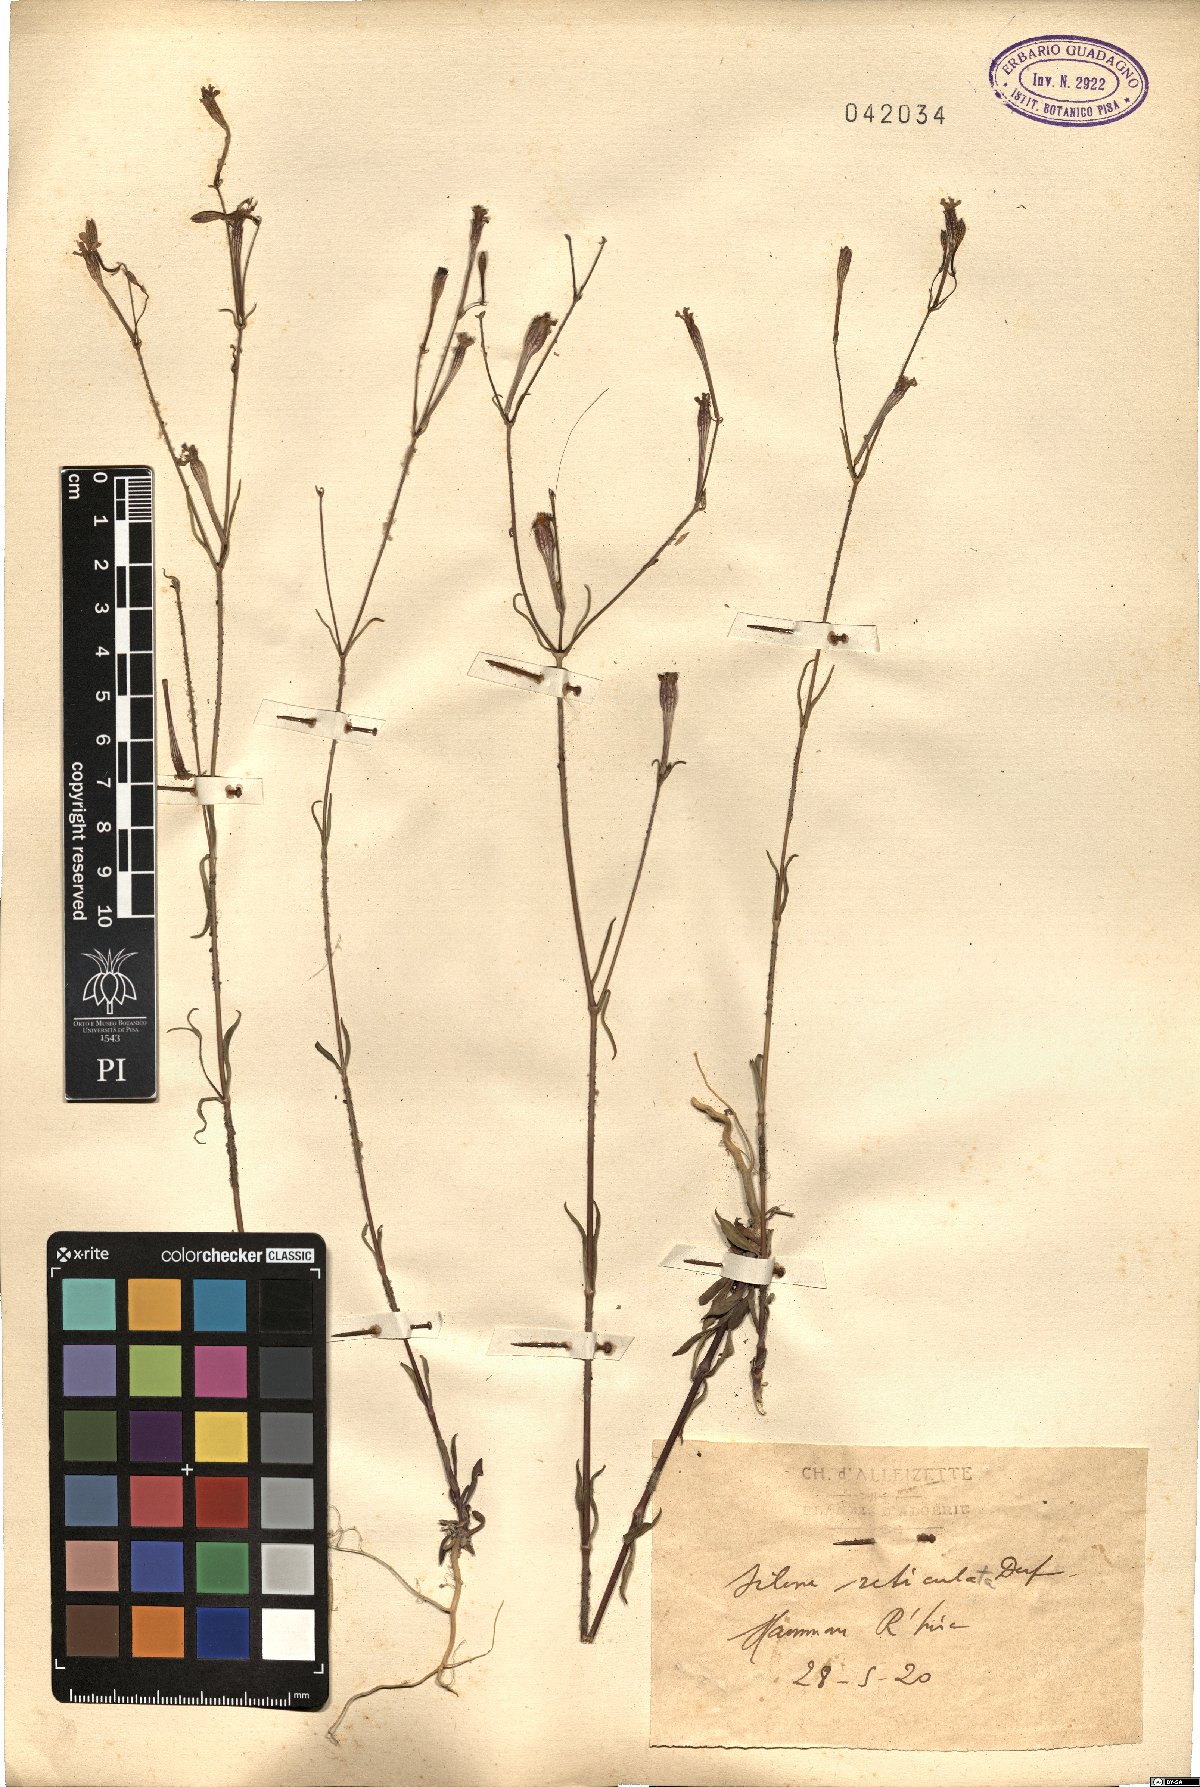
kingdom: Plantae
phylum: Tracheophyta
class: Magnoliopsida
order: Caryophyllales
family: Caryophyllaceae
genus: Silene
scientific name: Silene reticulata
